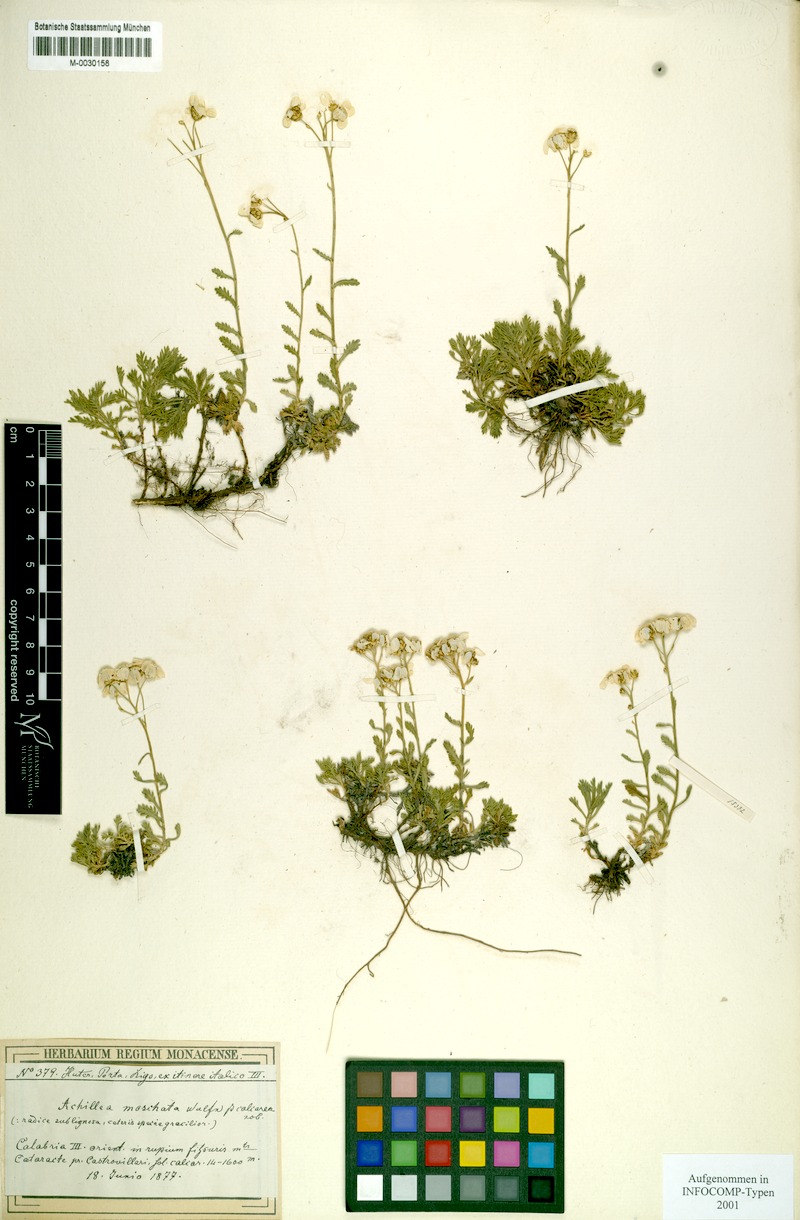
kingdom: Plantae
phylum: Tracheophyta
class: Magnoliopsida
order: Asterales
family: Asteraceae
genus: Achillea
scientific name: Achillea rupestris
